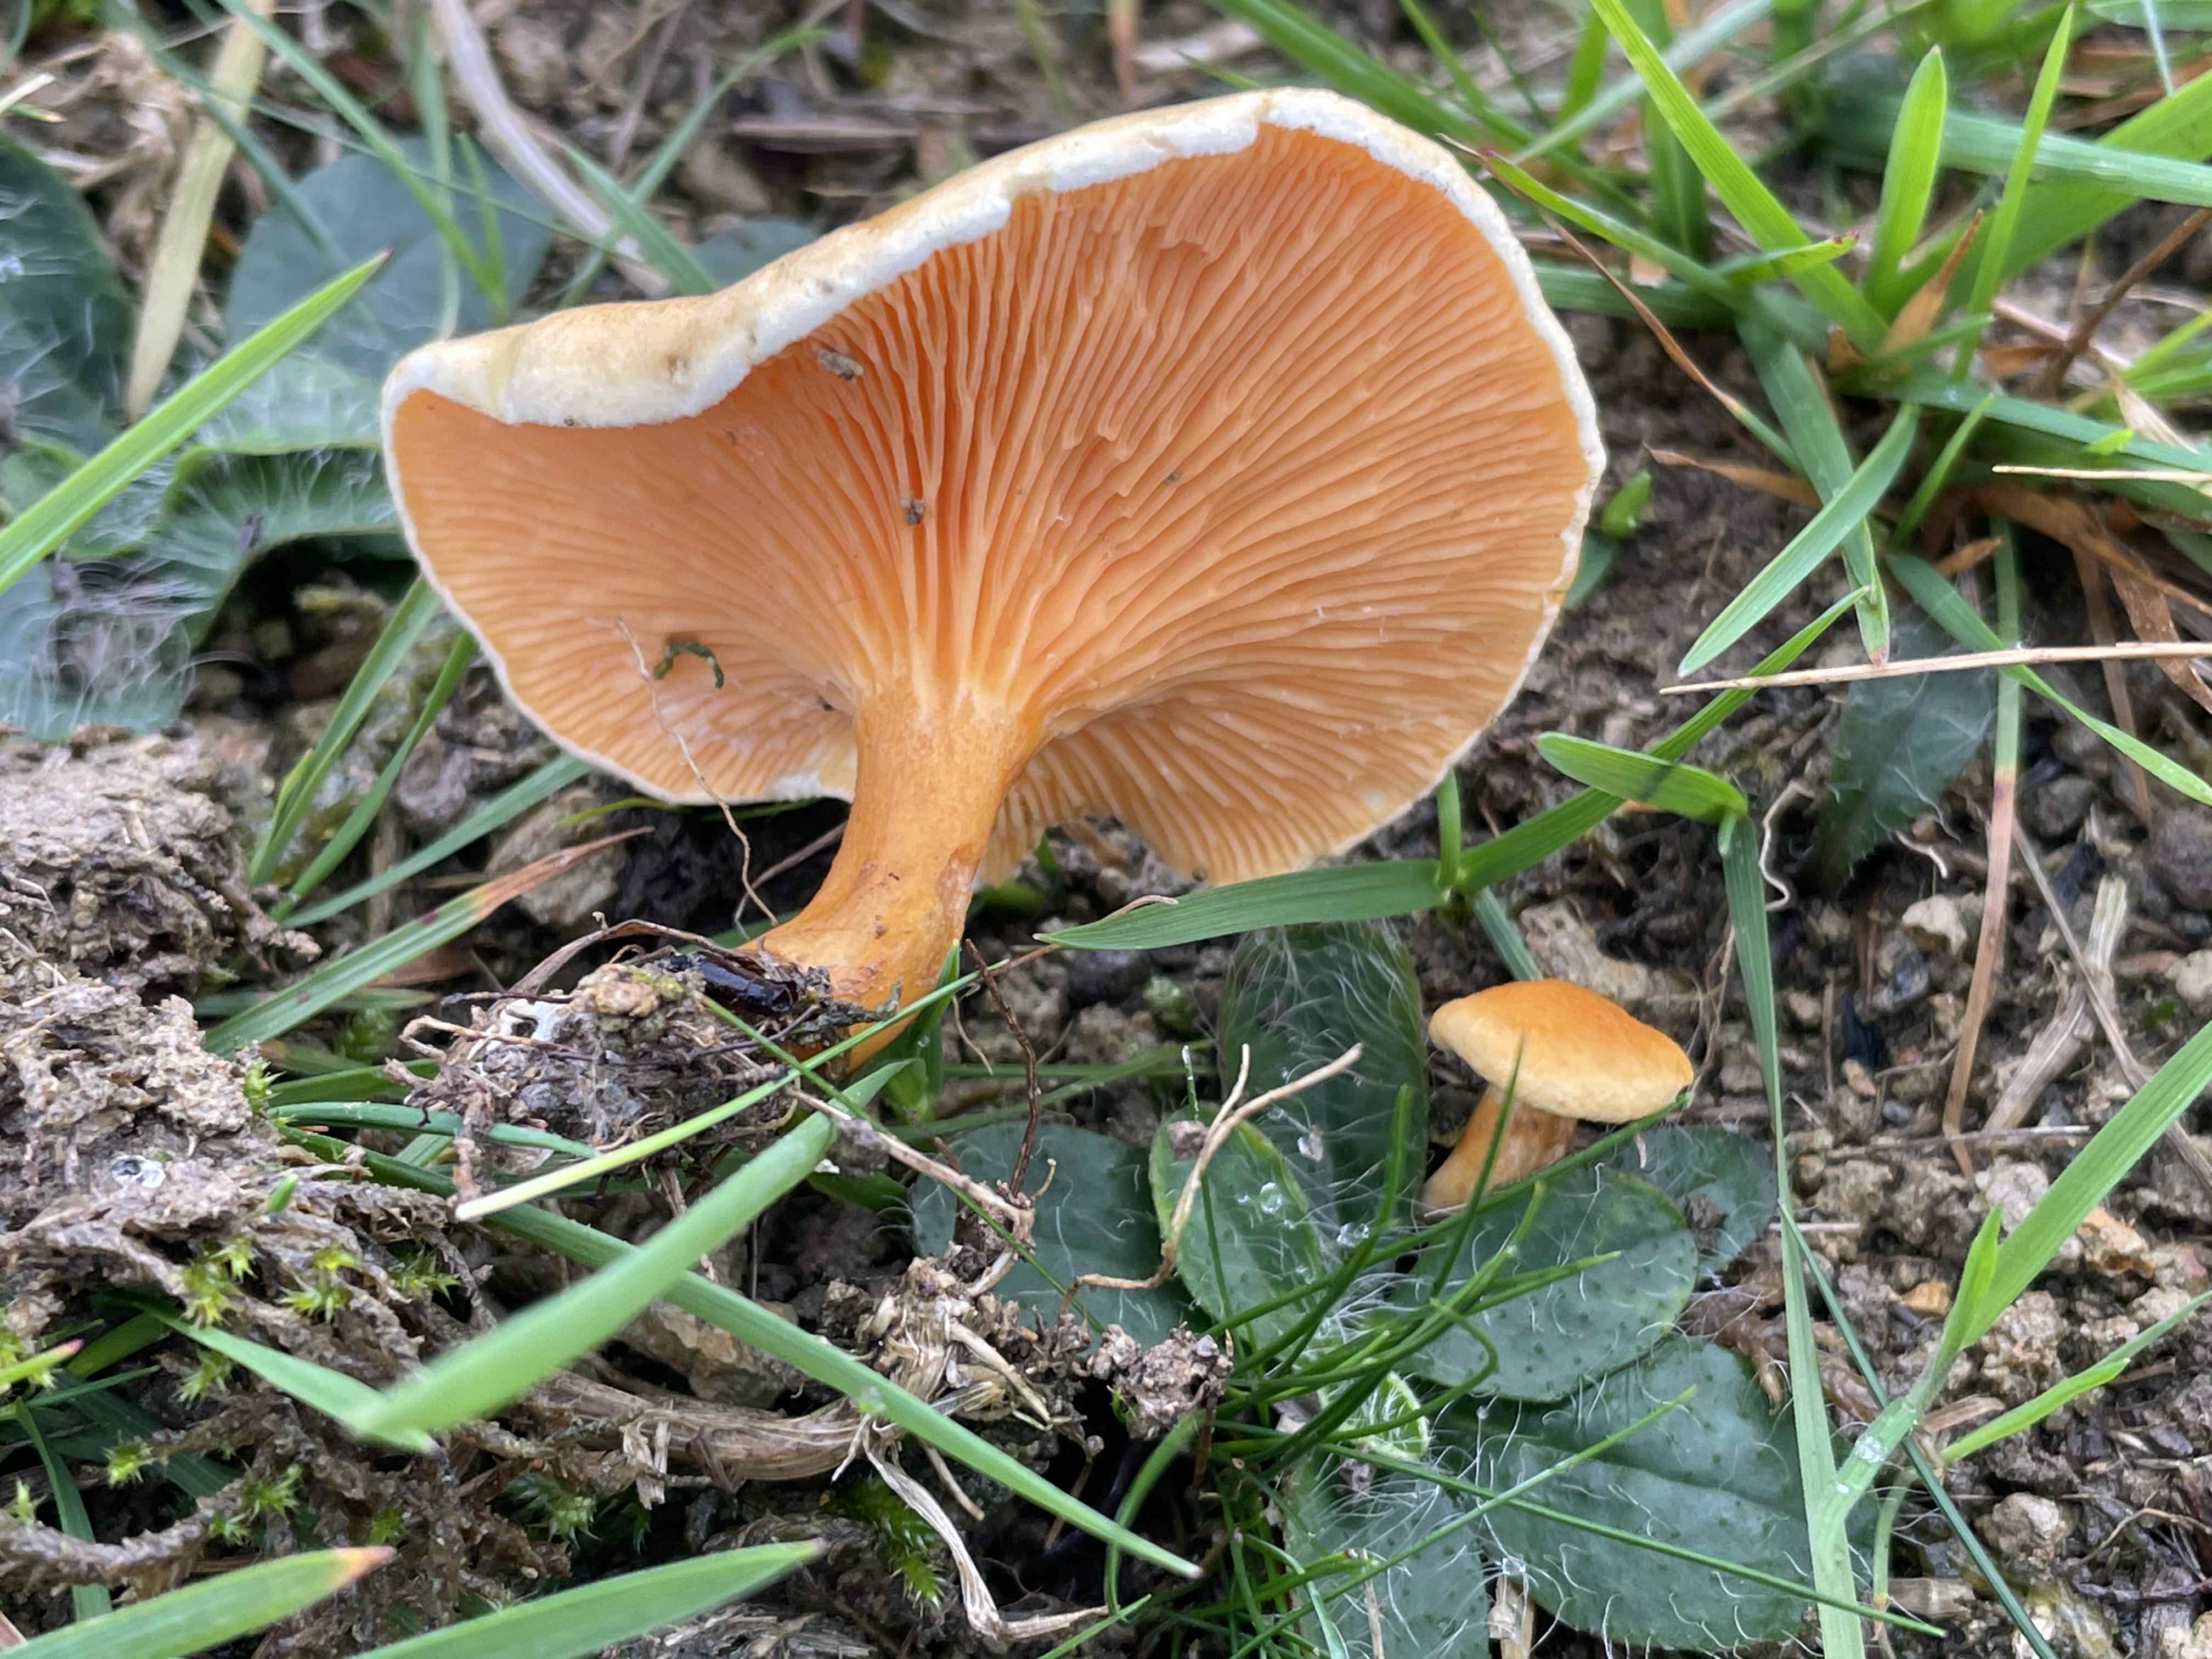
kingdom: Fungi
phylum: Basidiomycota
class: Agaricomycetes
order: Boletales
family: Hygrophoropsidaceae
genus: Hygrophoropsis
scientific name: Hygrophoropsis aurantiaca
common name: almindelig orangekantarel
